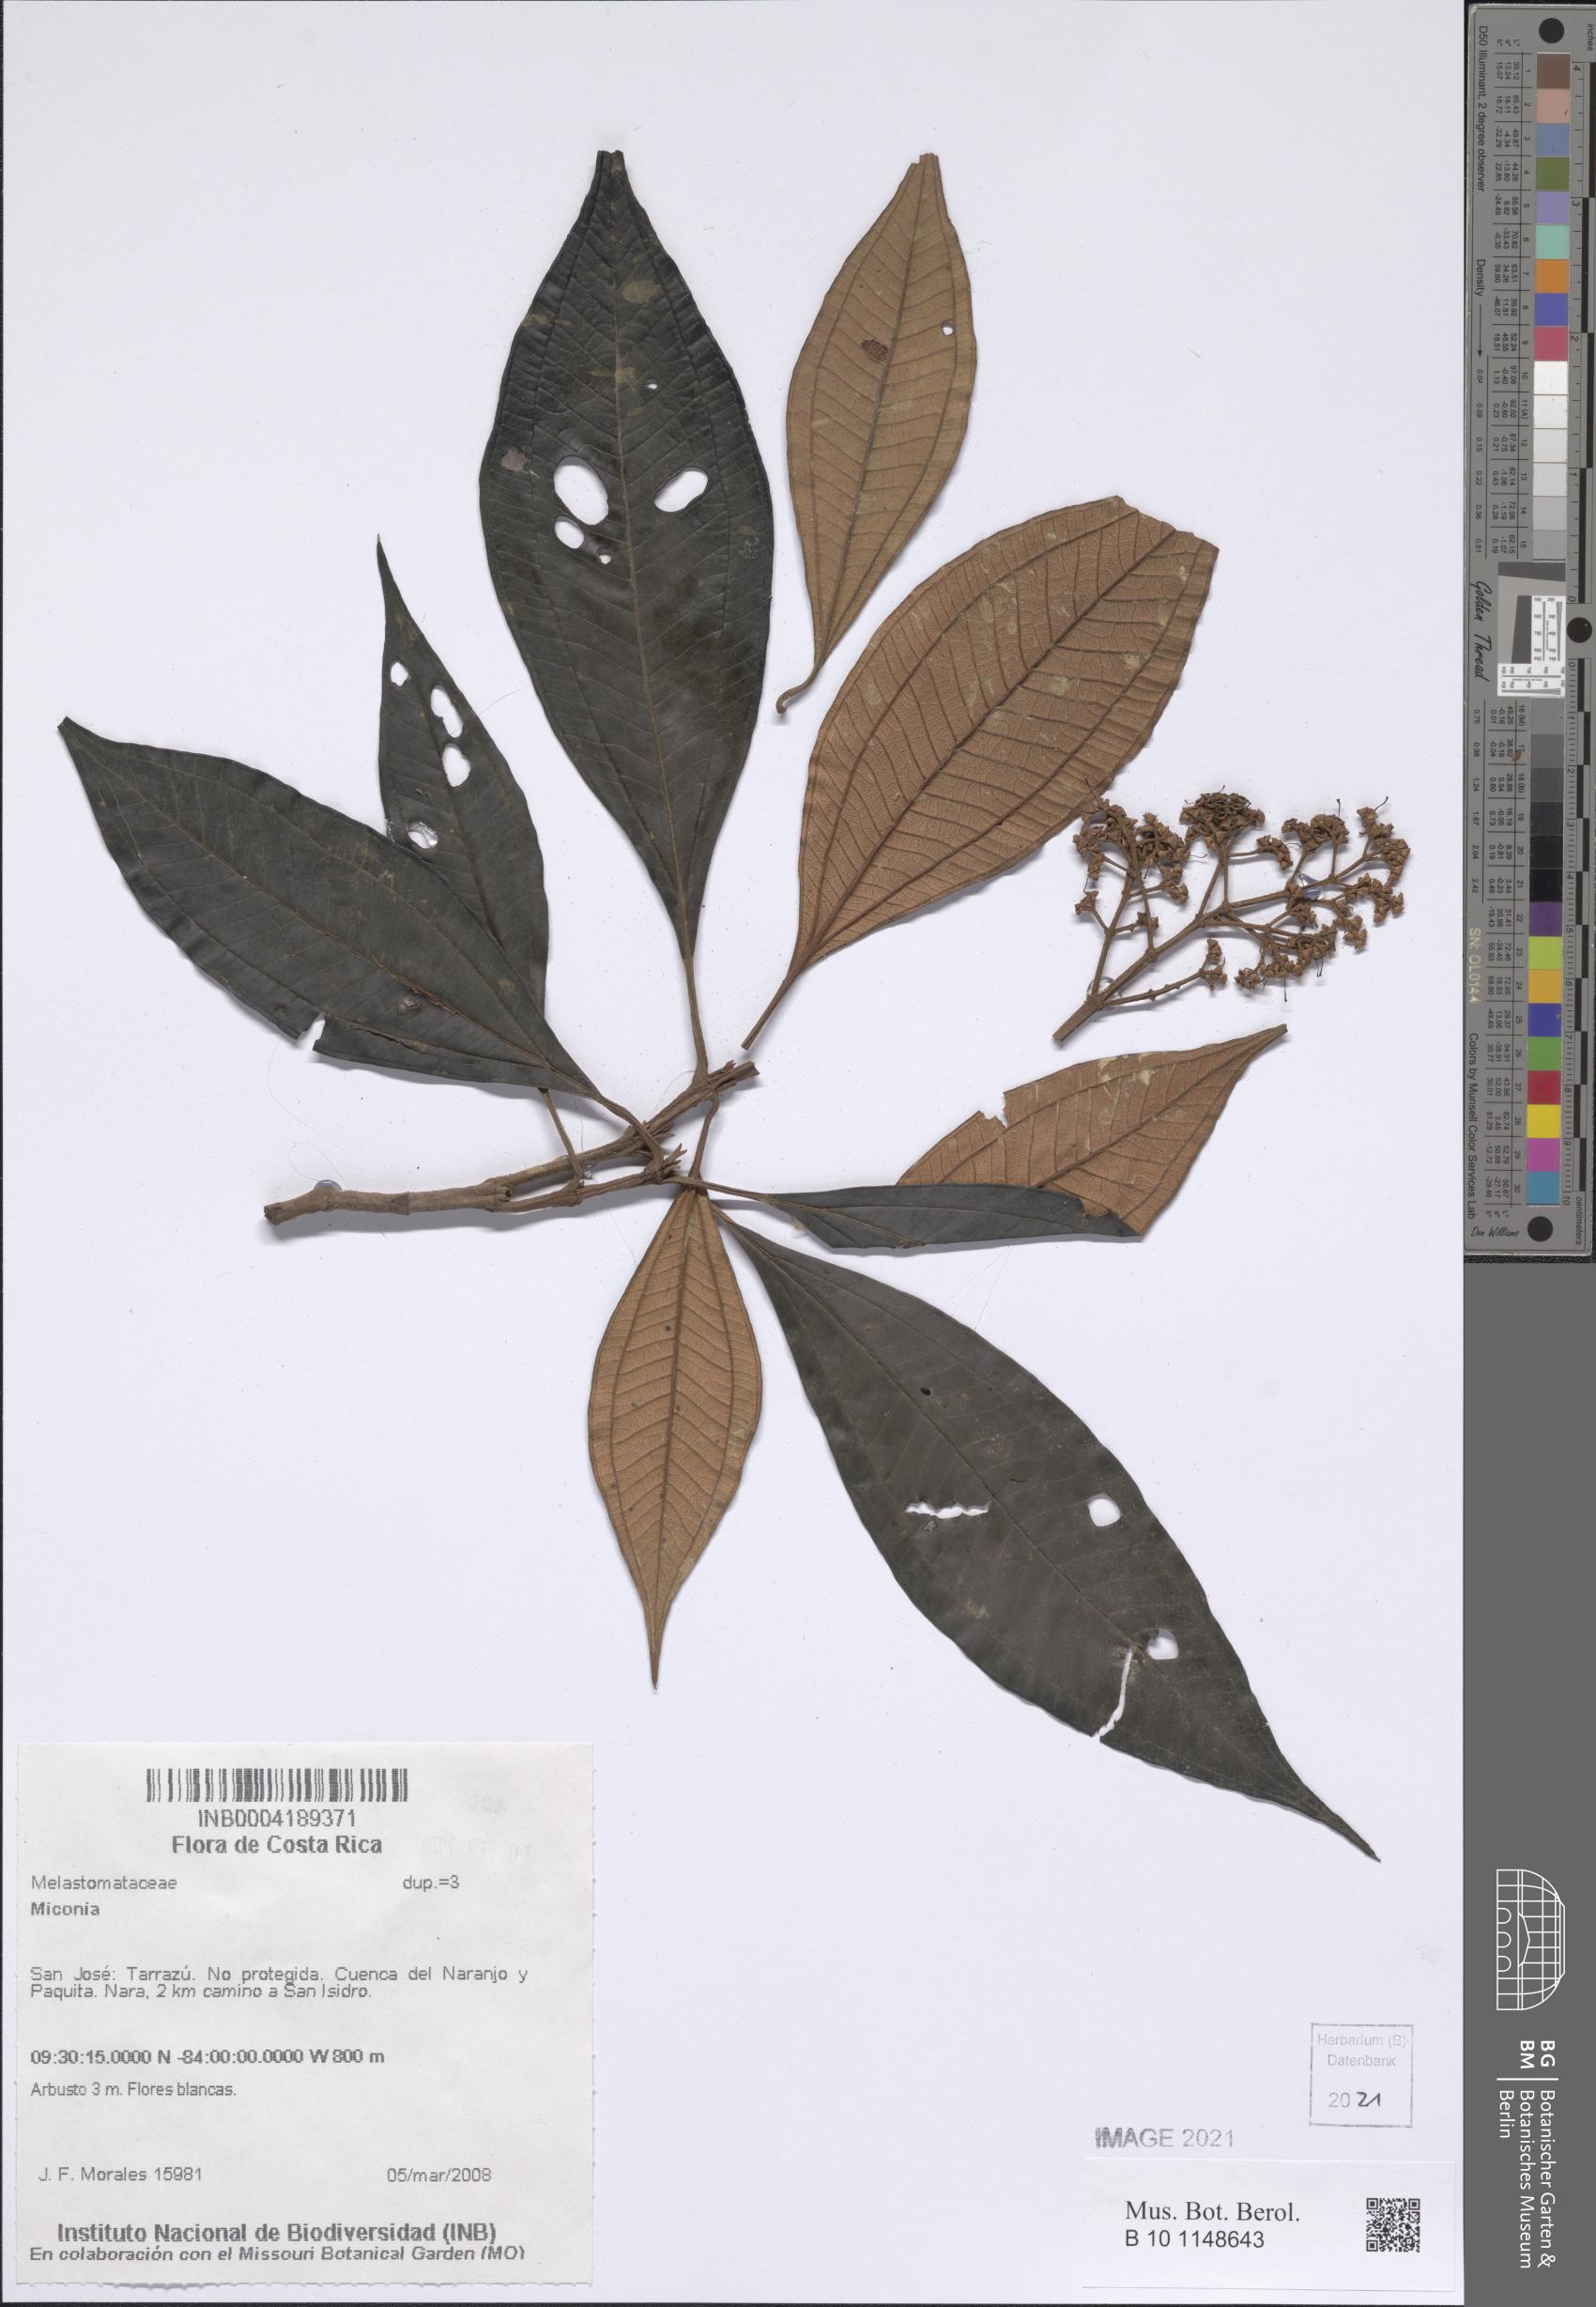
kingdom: Plantae
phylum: Tracheophyta
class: Magnoliopsida
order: Myrtales
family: Melastomataceae
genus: Miconia
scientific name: Miconia
